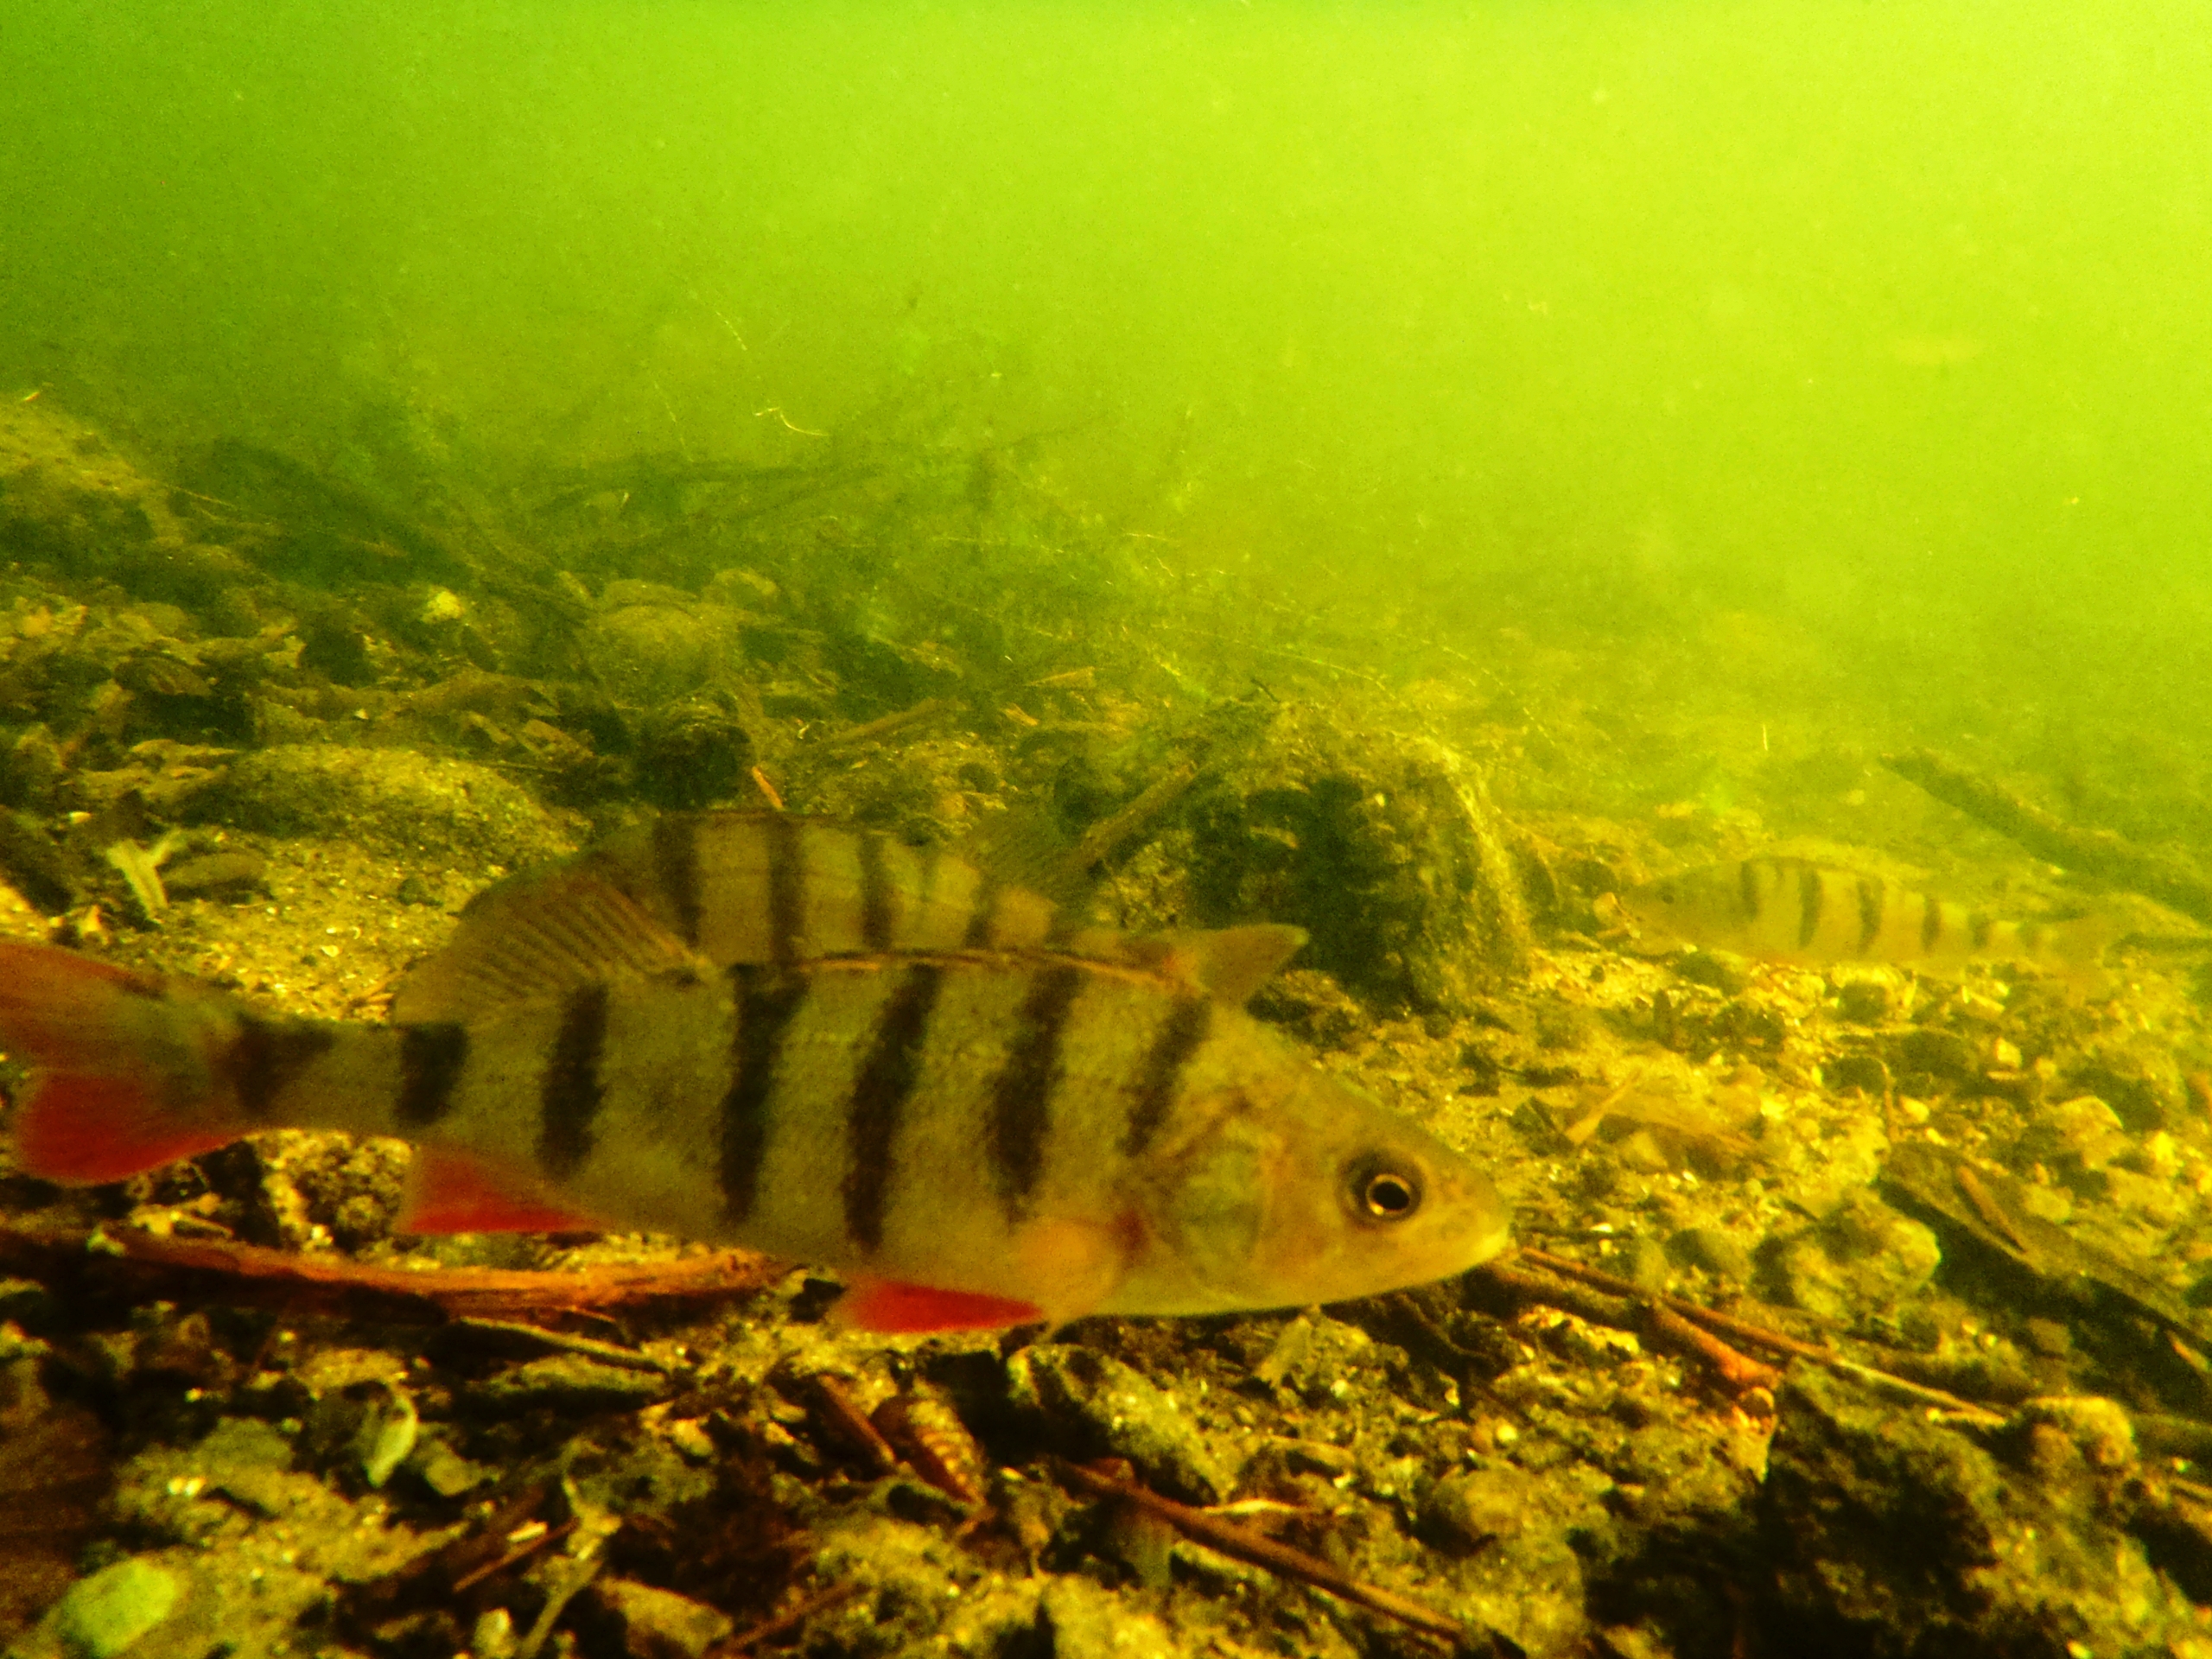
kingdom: Animalia
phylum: Chordata
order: Perciformes
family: Percidae
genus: Perca
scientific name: Perca fluviatilis
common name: Aborre
